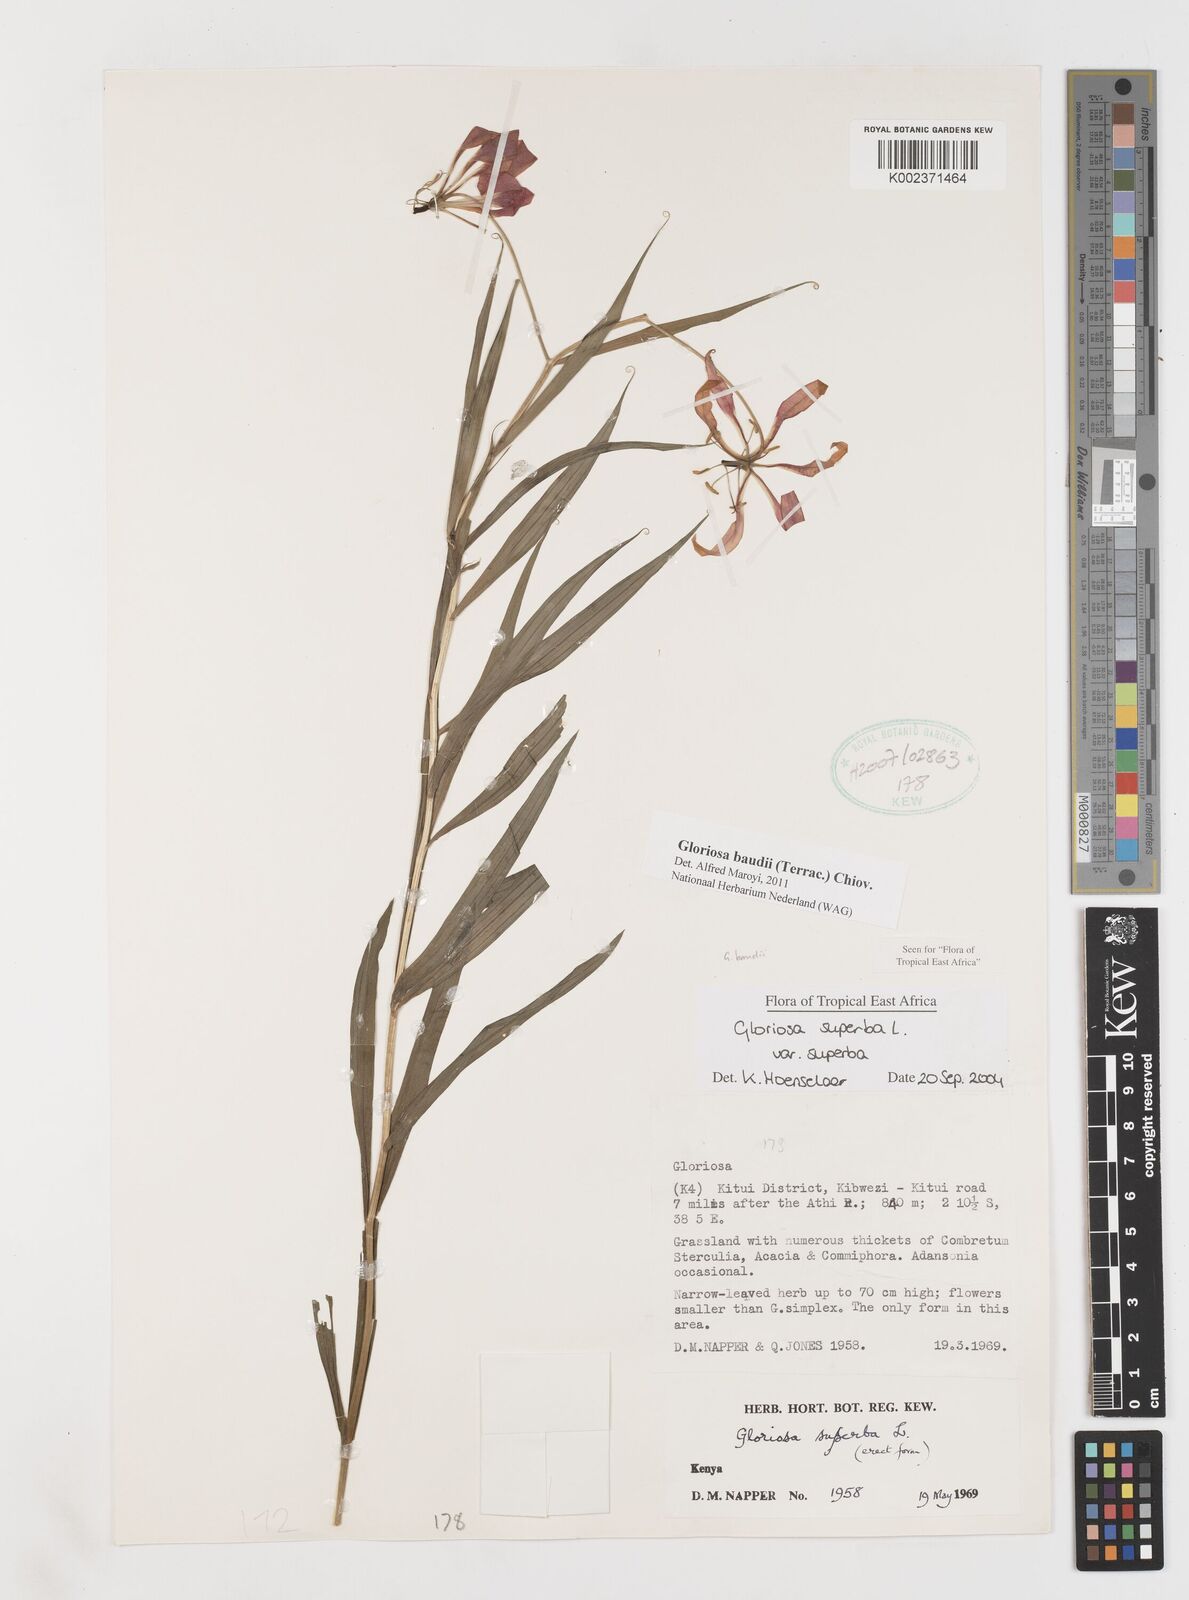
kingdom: Plantae
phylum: Tracheophyta
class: Liliopsida
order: Liliales
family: Colchicaceae
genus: Gloriosa
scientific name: Gloriosa baudii
